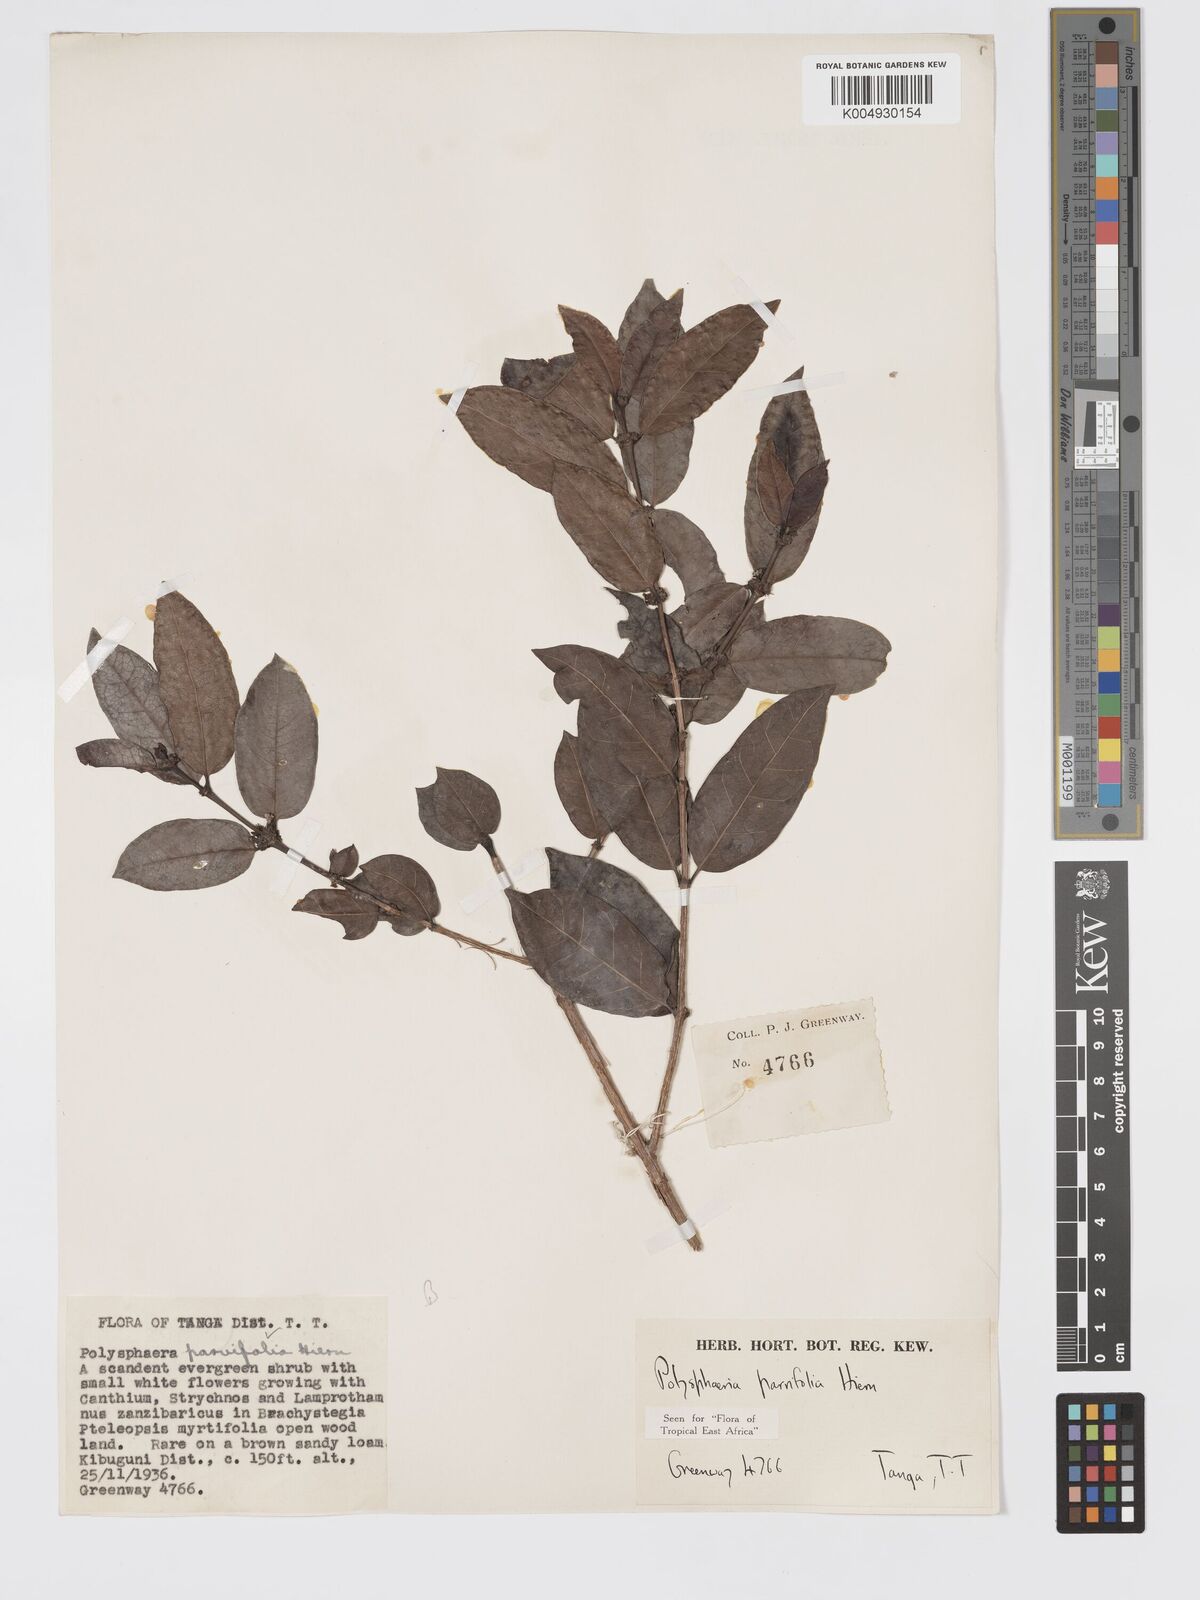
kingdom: Plantae
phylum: Tracheophyta
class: Magnoliopsida
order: Gentianales
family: Rubiaceae
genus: Polysphaeria
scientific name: Polysphaeria parvifolia
